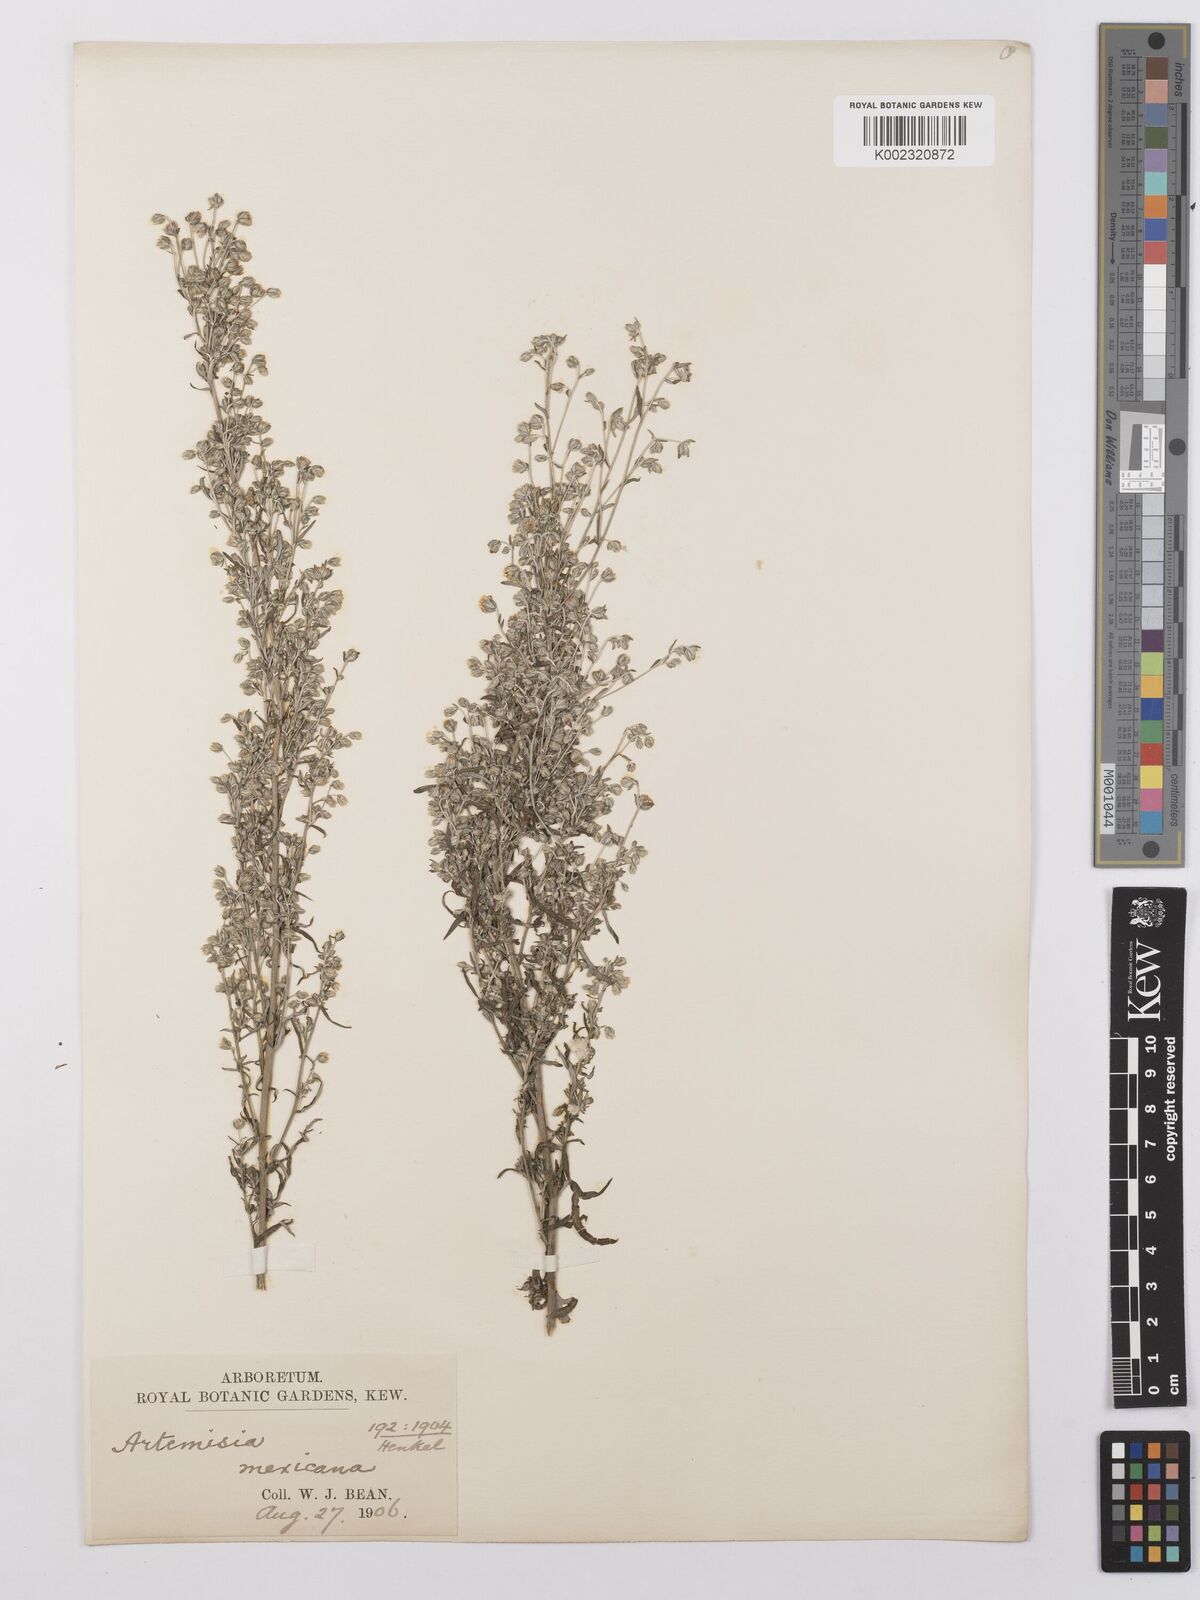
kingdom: Plantae
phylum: Tracheophyta
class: Magnoliopsida
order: Asterales
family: Asteraceae
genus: Artemisia
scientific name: Artemisia ludoviciana
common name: Western mugwort
